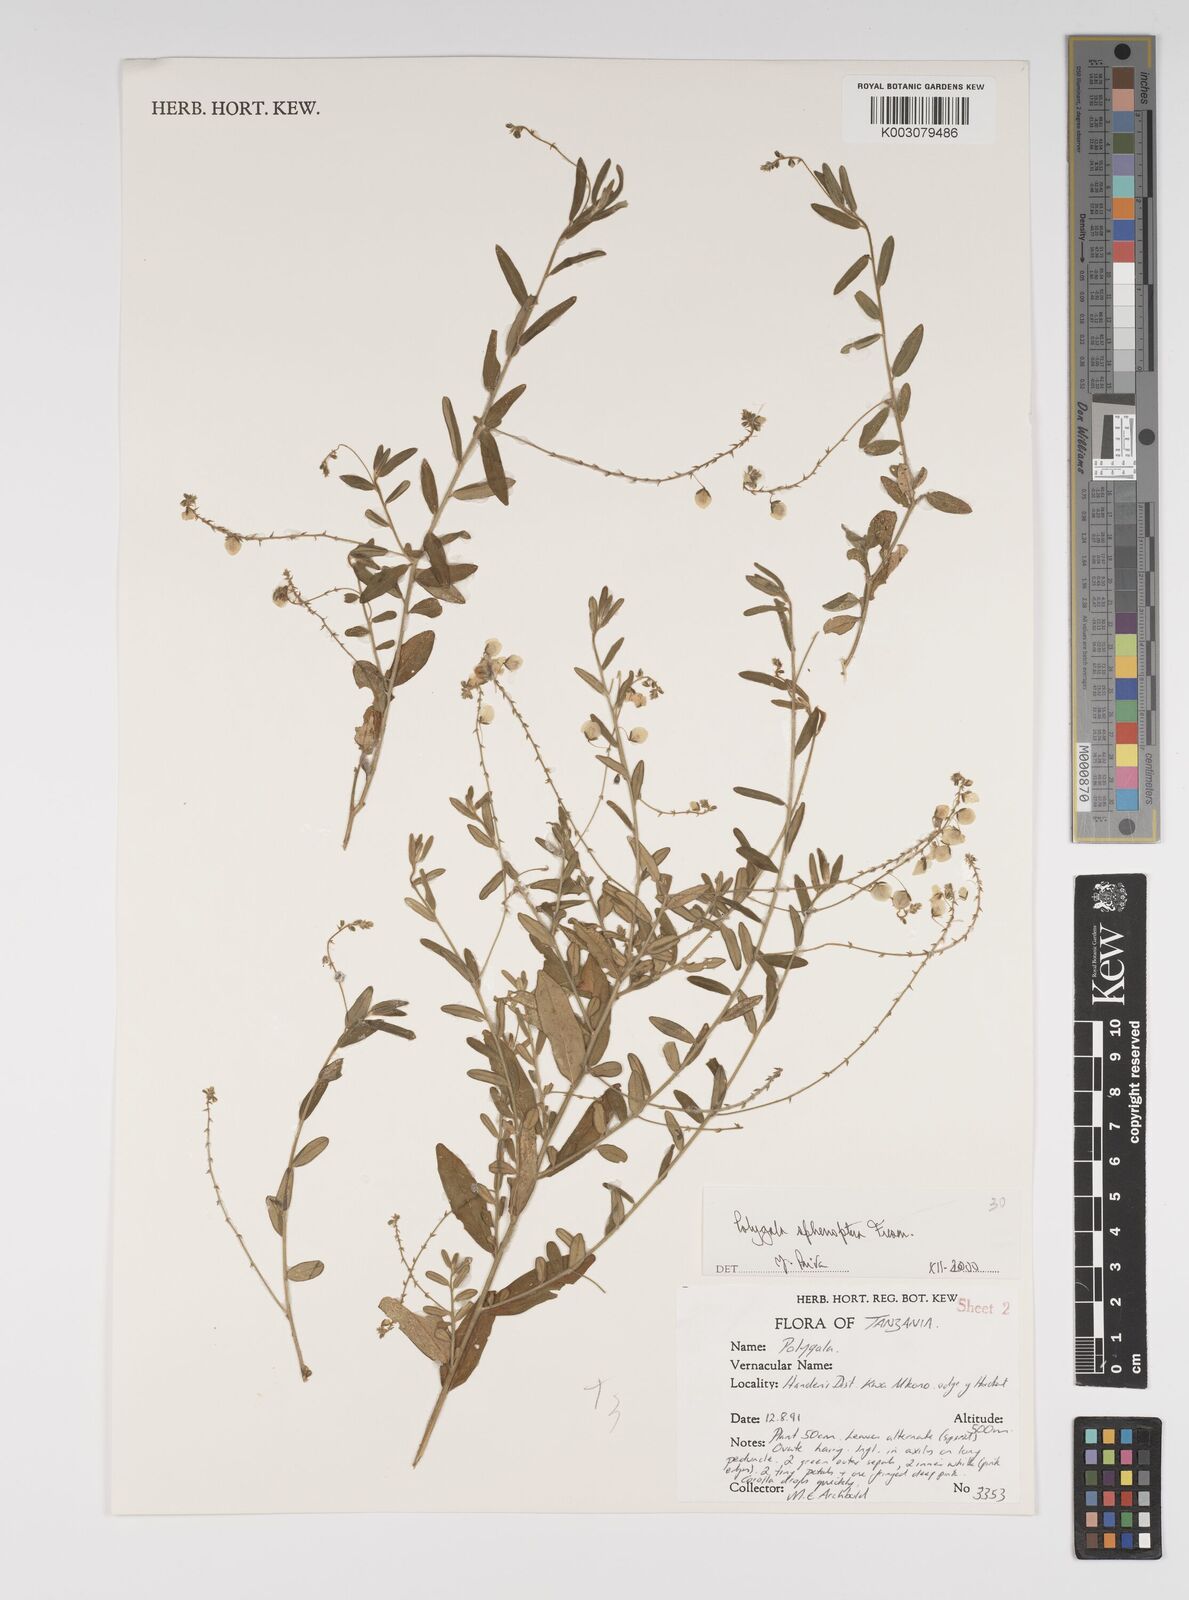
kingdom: Plantae
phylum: Tracheophyta
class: Magnoliopsida
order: Fabales
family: Polygalaceae
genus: Polygala
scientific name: Polygala sphenoptera
